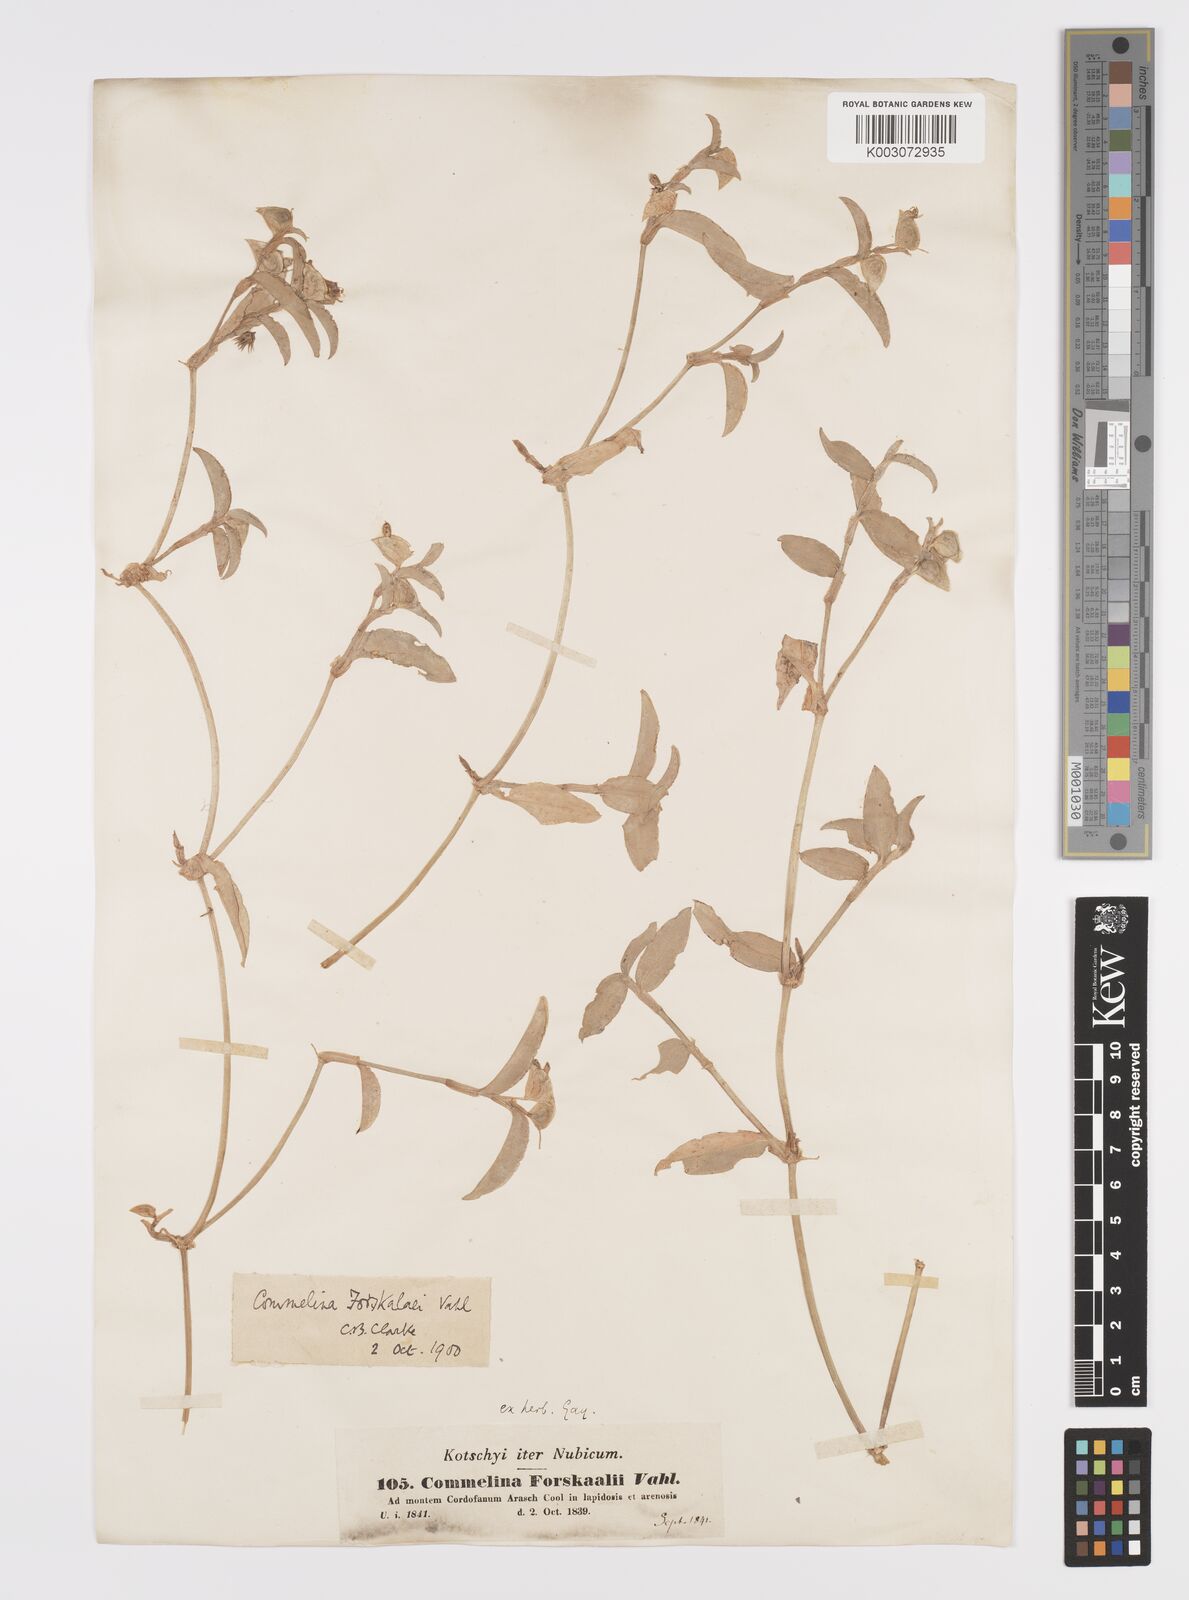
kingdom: Plantae
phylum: Tracheophyta
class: Liliopsida
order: Commelinales
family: Commelinaceae
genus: Commelina
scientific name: Commelina forskaolii
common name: Rat's ear
